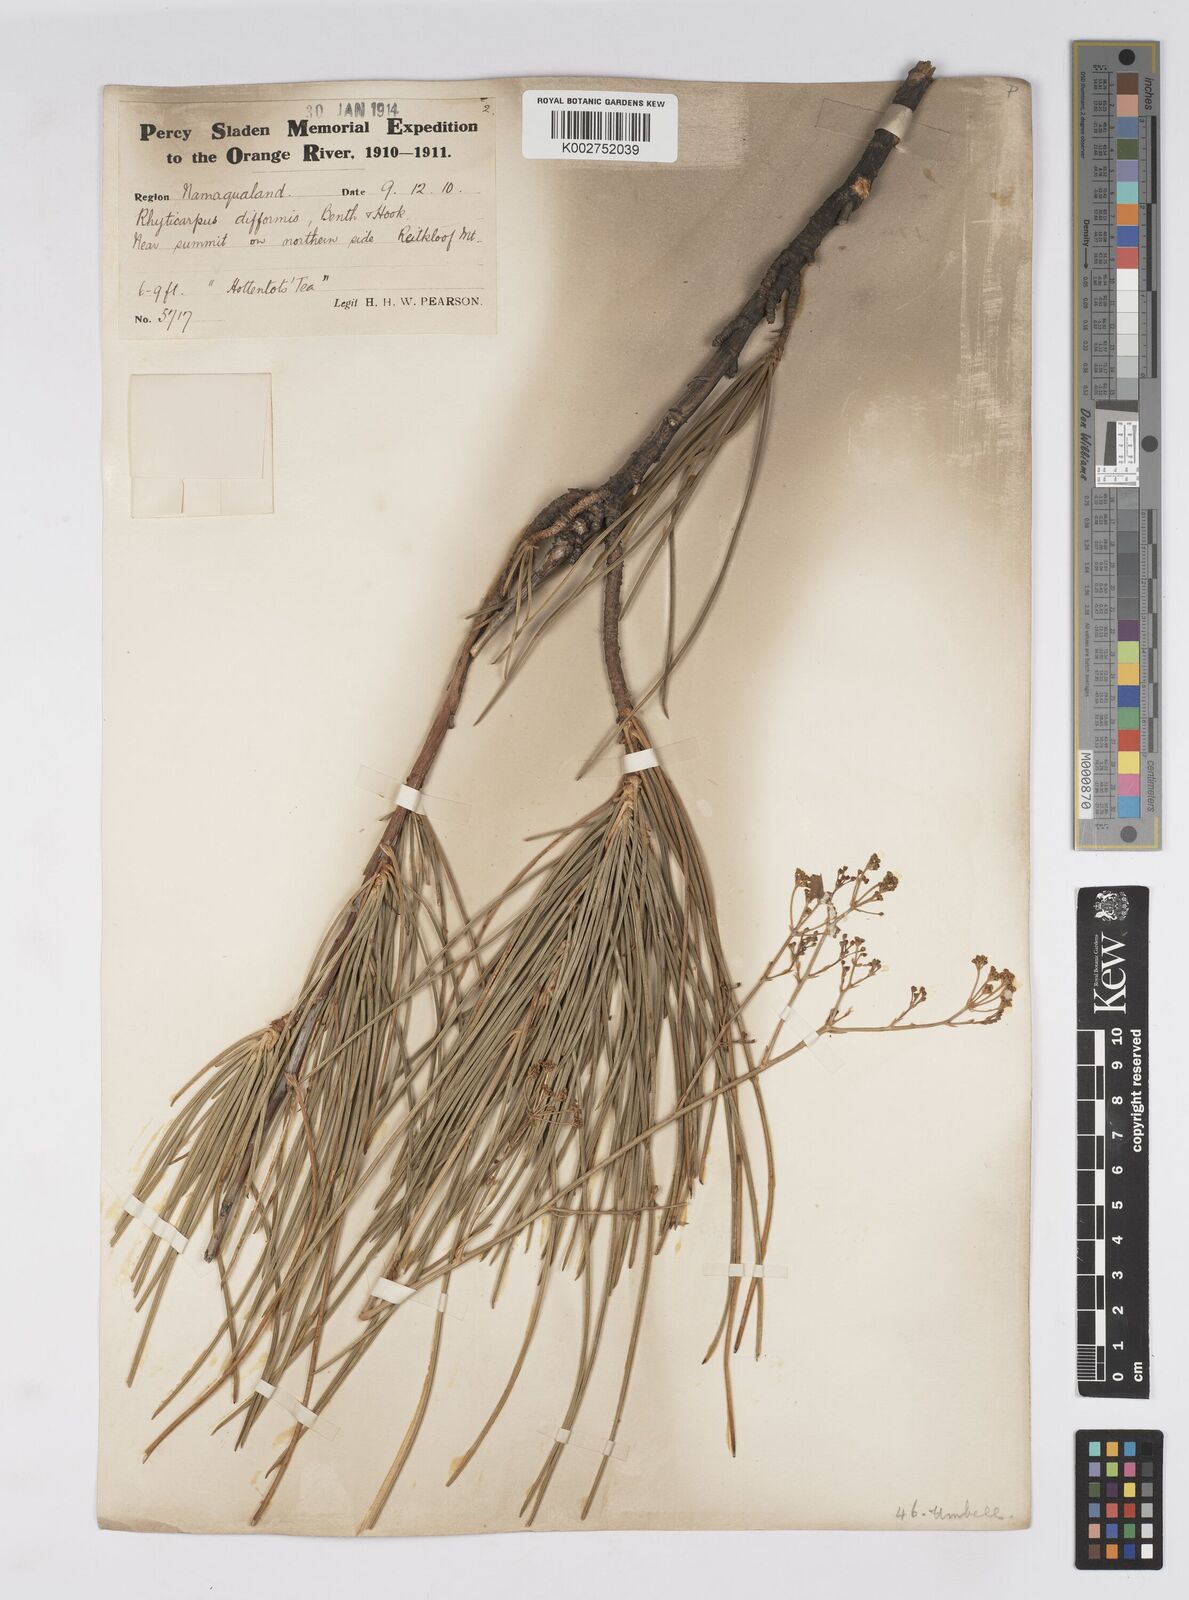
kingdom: Plantae
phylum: Tracheophyta
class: Magnoliopsida
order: Apiales
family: Apiaceae
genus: Anginon
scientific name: Anginon difforme
